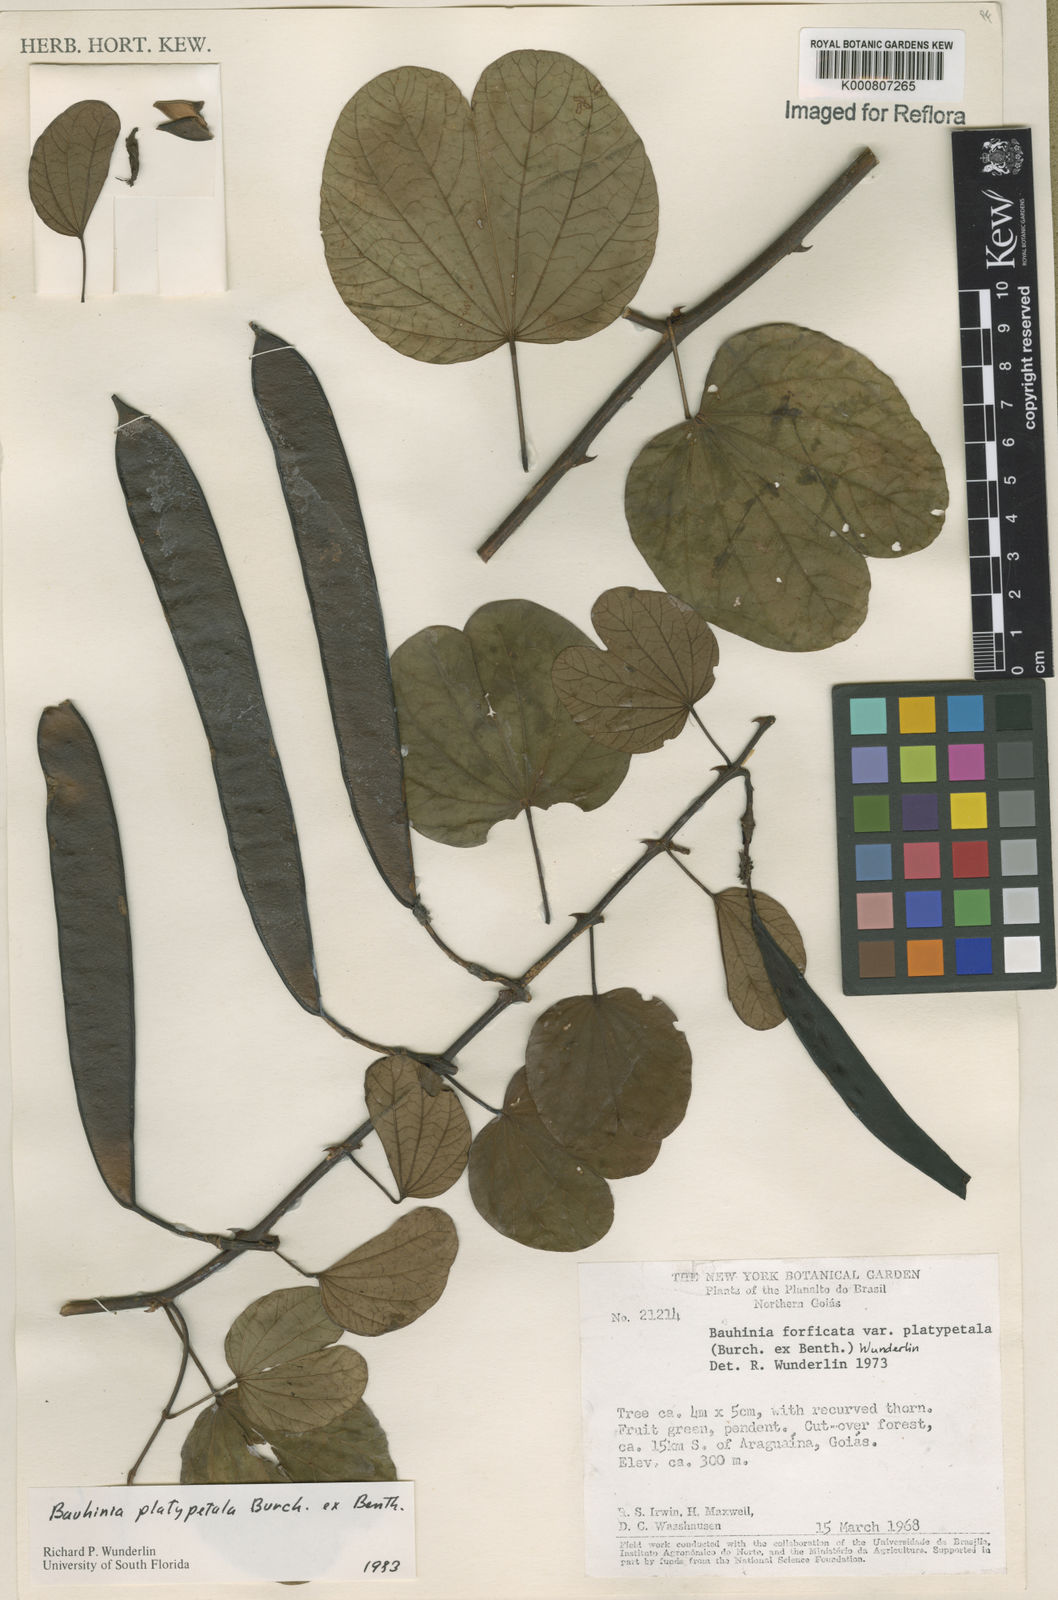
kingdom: Plantae
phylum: Tracheophyta
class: Magnoliopsida
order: Fabales
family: Fabaceae
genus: Bauhinia
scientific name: Bauhinia platypetala
